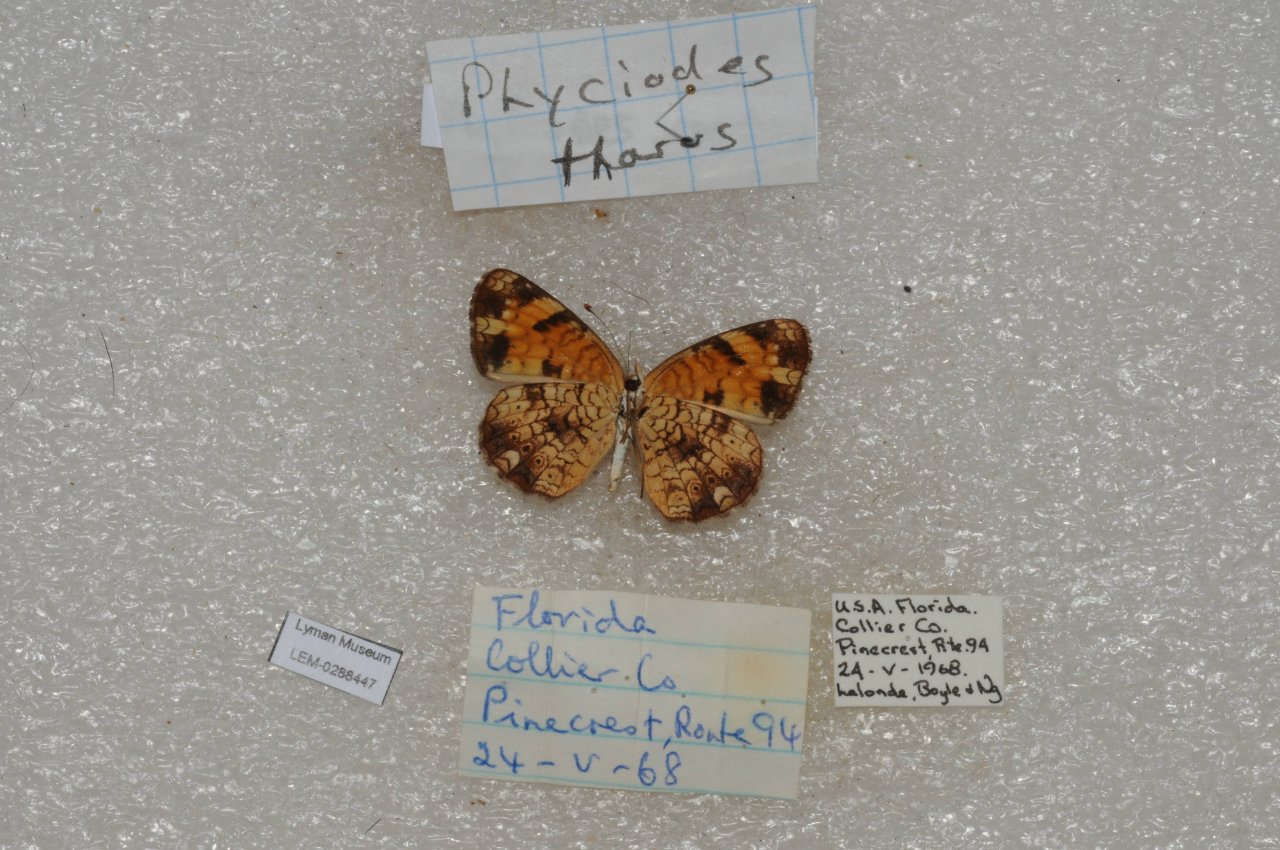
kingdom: Animalia
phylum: Arthropoda
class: Insecta
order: Lepidoptera
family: Nymphalidae
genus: Phyciodes
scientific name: Phyciodes tharos
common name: Pearl Crescent
